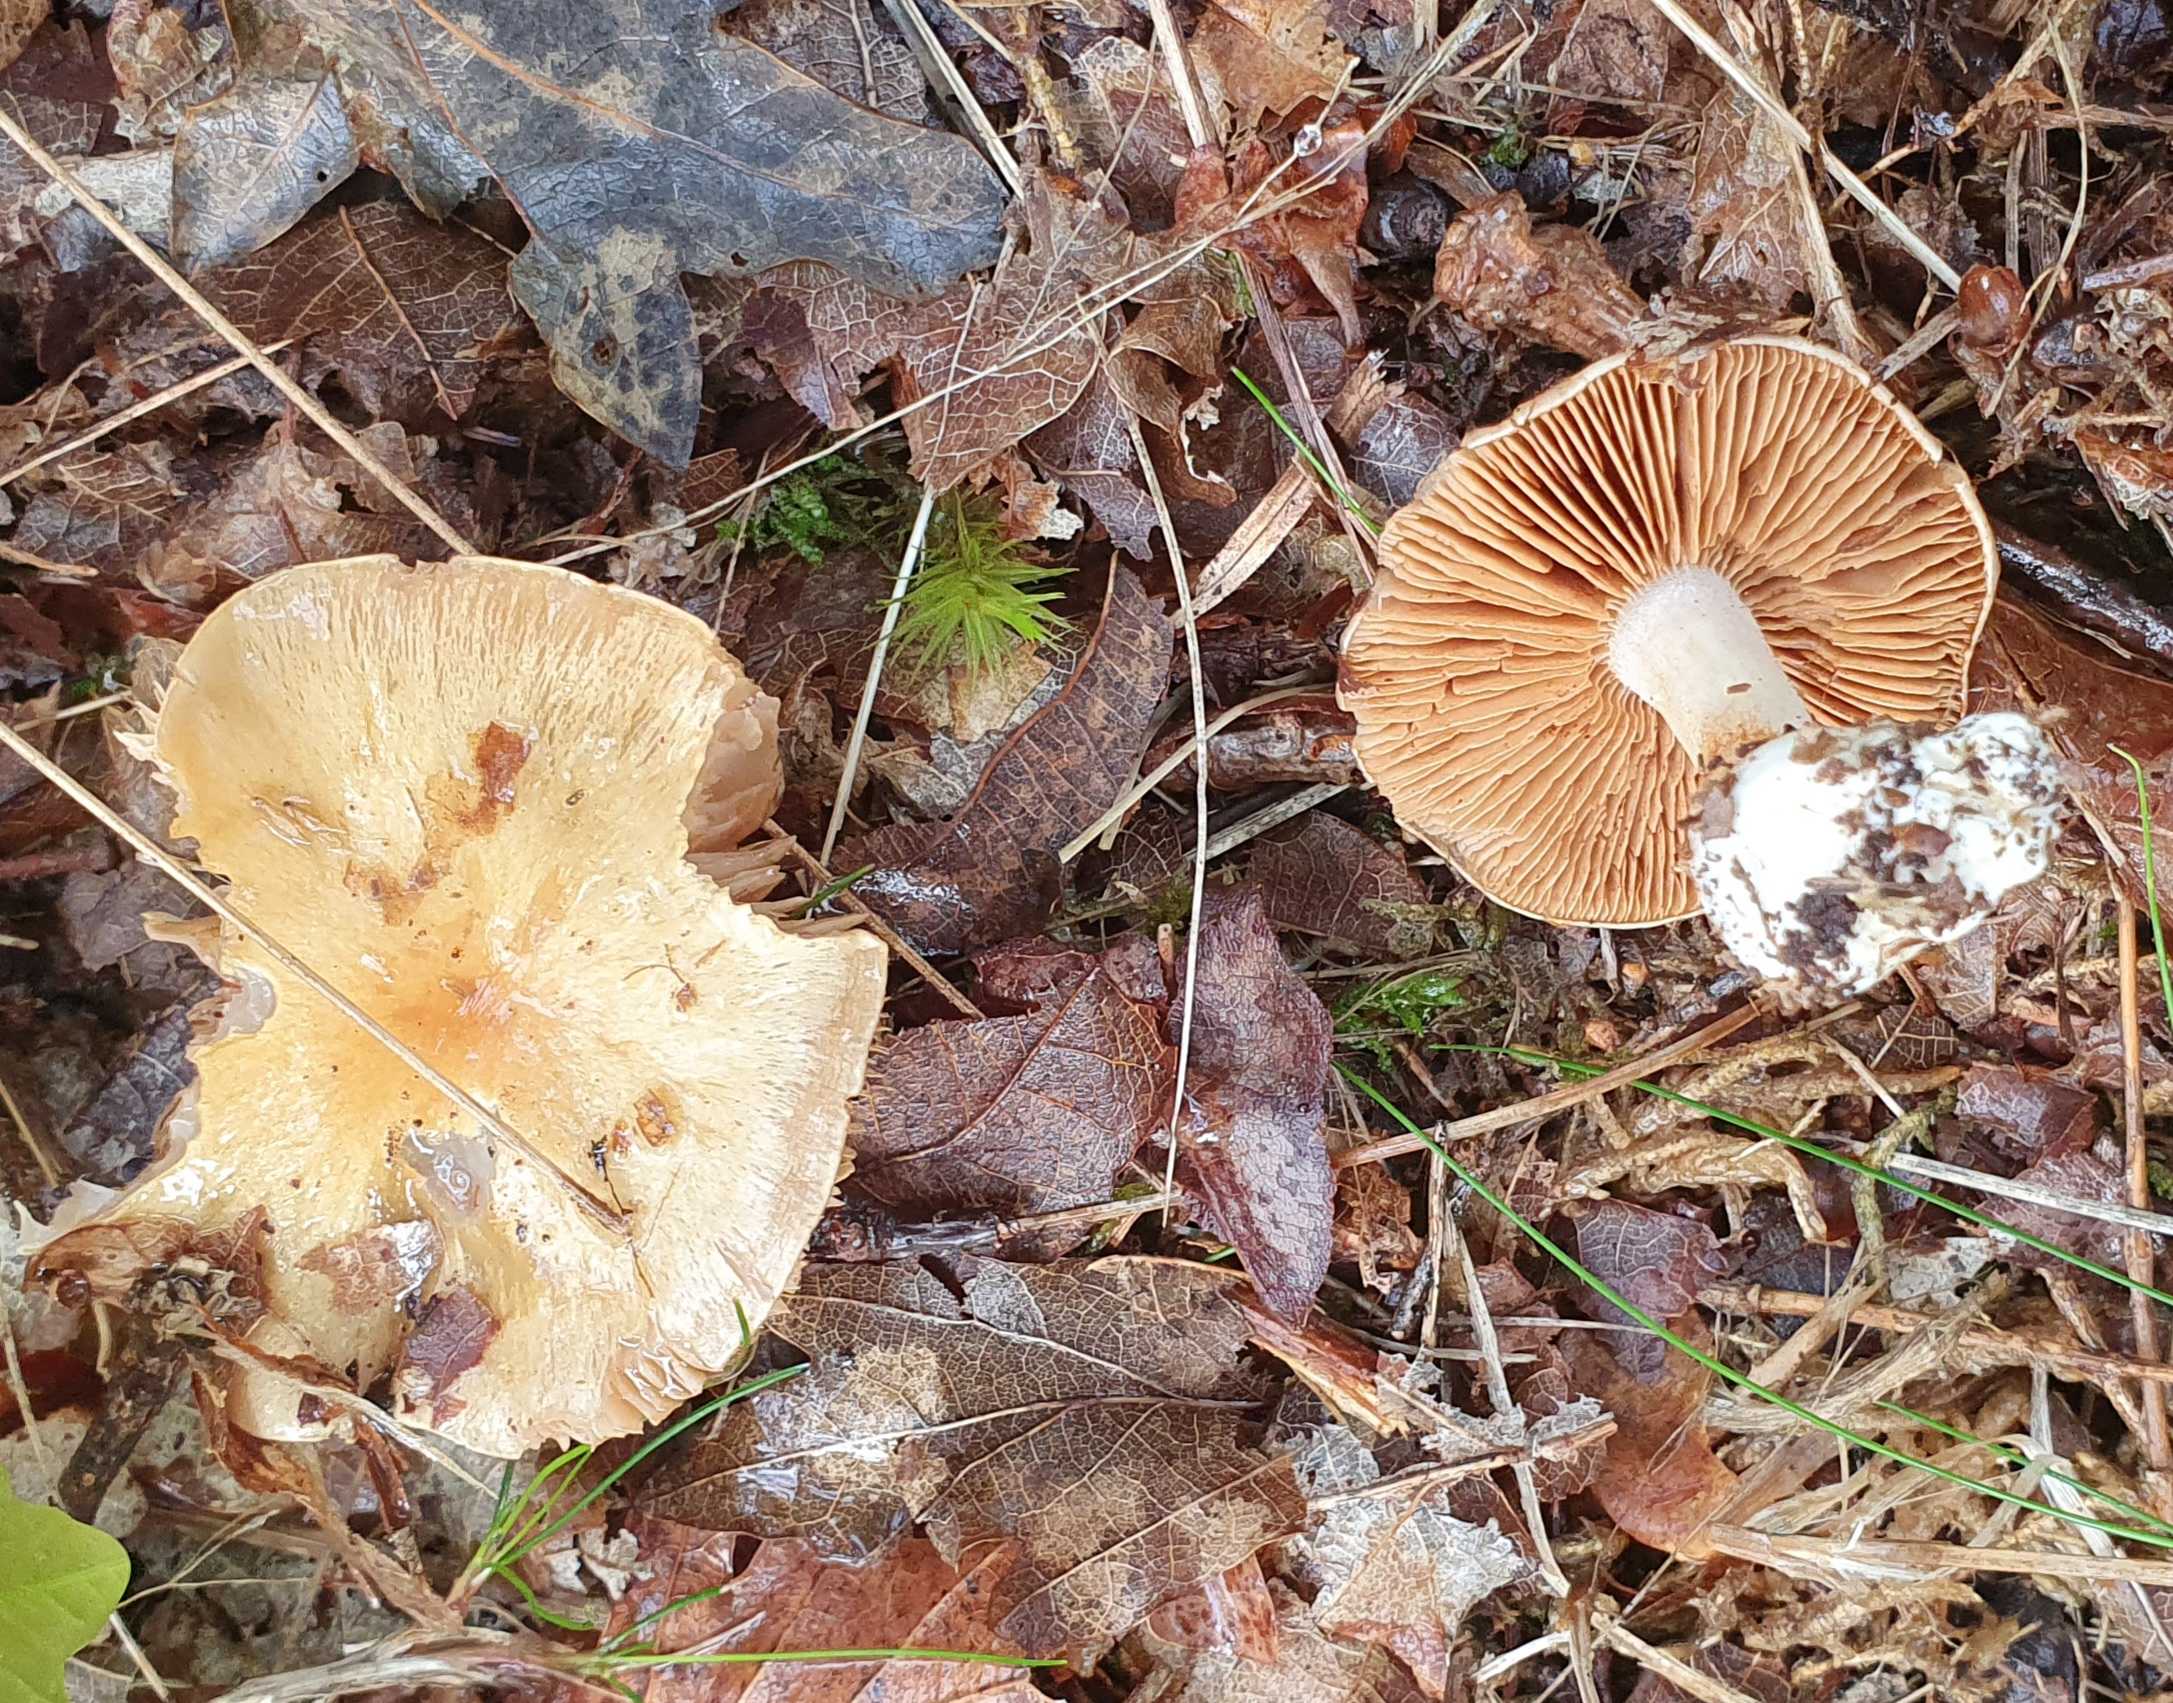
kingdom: Fungi
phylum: Basidiomycota
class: Agaricomycetes
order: Agaricales
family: Cortinariaceae
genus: Thaxterogaster
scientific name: Thaxterogaster
